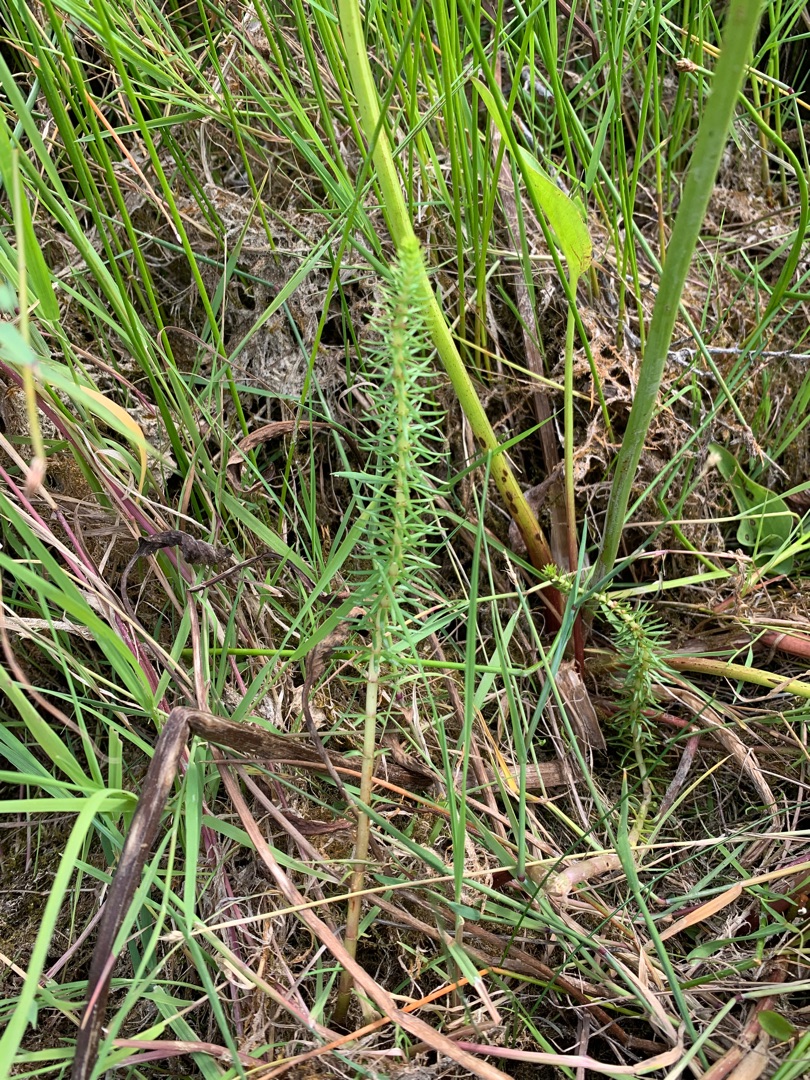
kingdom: Plantae
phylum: Tracheophyta
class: Magnoliopsida
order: Lamiales
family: Plantaginaceae
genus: Hippuris
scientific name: Hippuris vulgaris
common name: Vandspir
